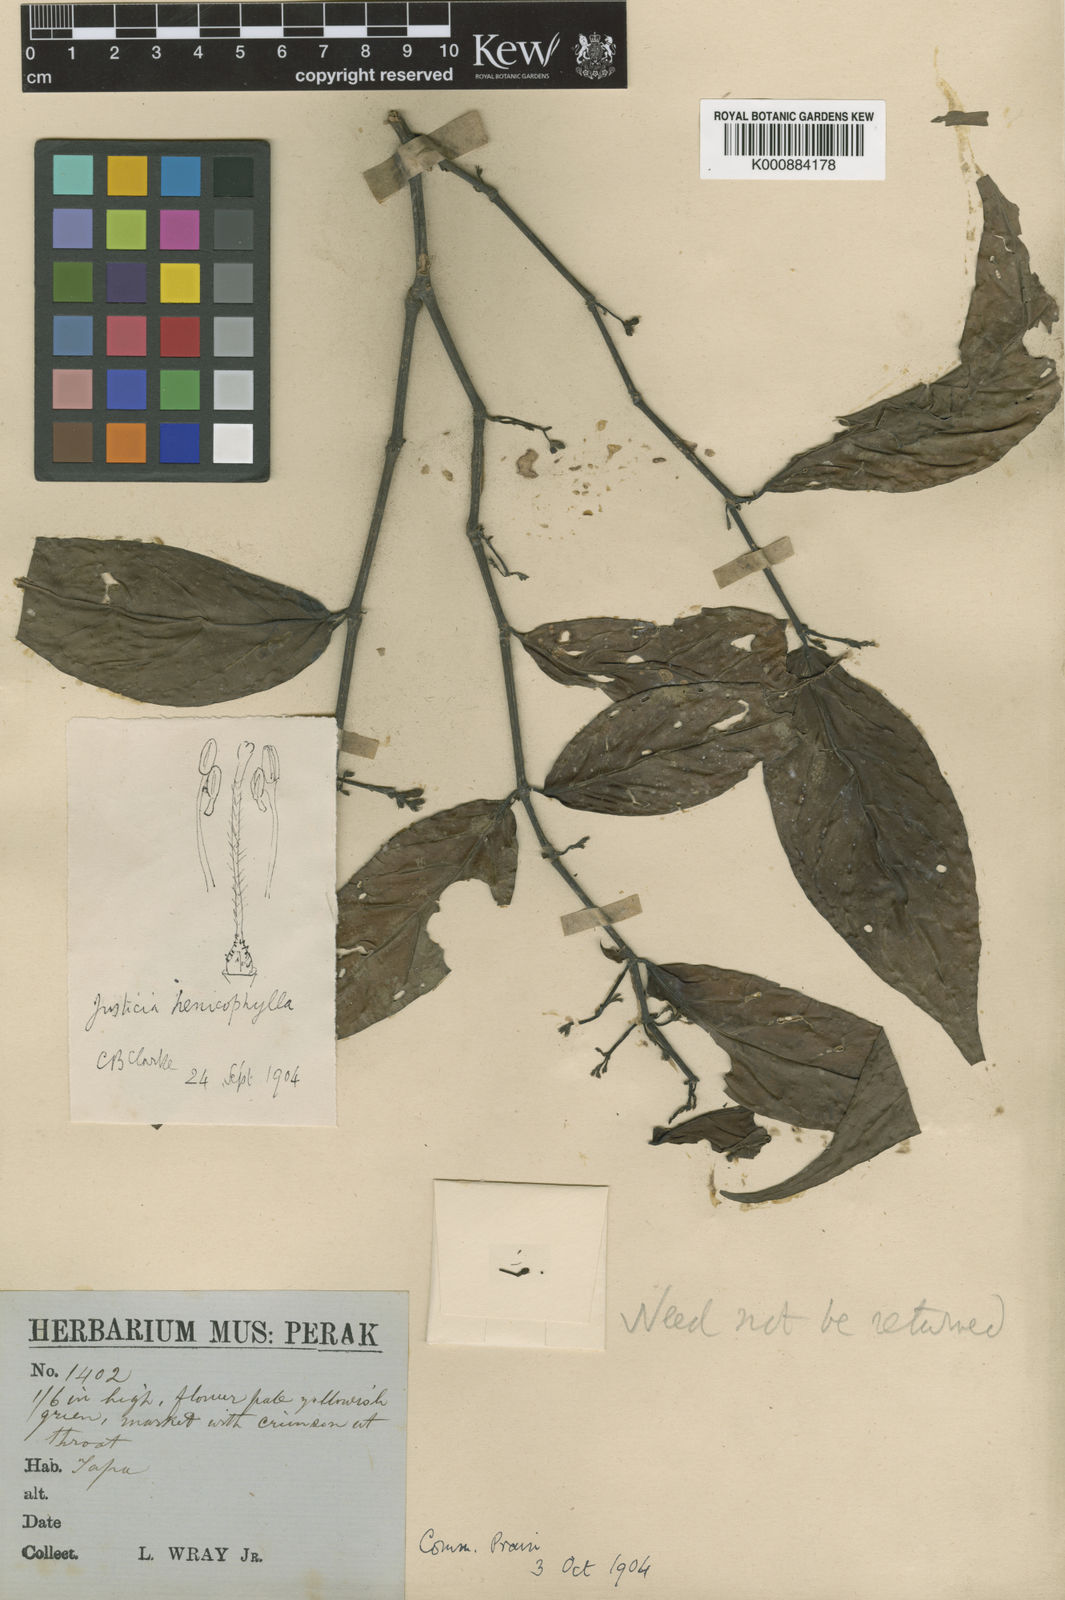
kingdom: Plantae
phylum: Tracheophyta
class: Magnoliopsida
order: Lamiales
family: Acanthaceae
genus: Justicia
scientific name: Justicia alternifolia
